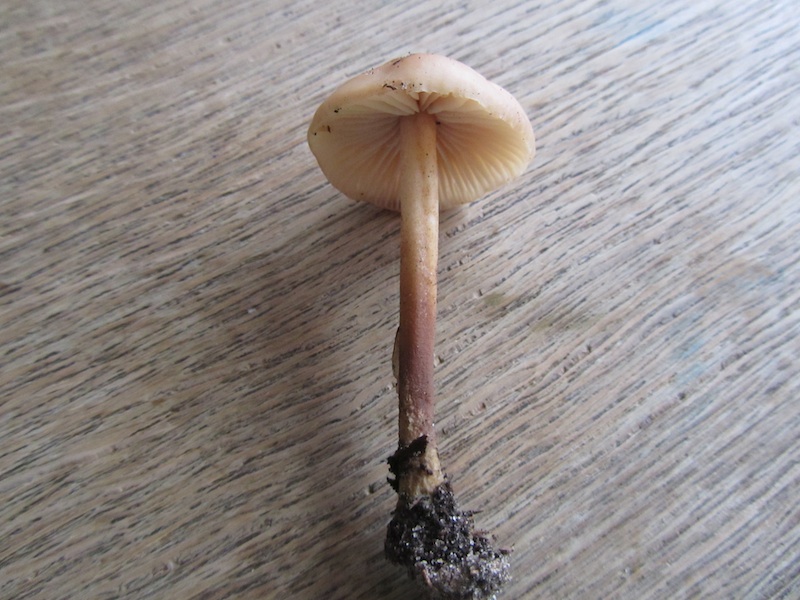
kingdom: Fungi
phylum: Basidiomycota
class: Agaricomycetes
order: Agaricales
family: Marasmiaceae
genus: Marasmius
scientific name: Marasmius torquescens
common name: filtfodet bruskhat
